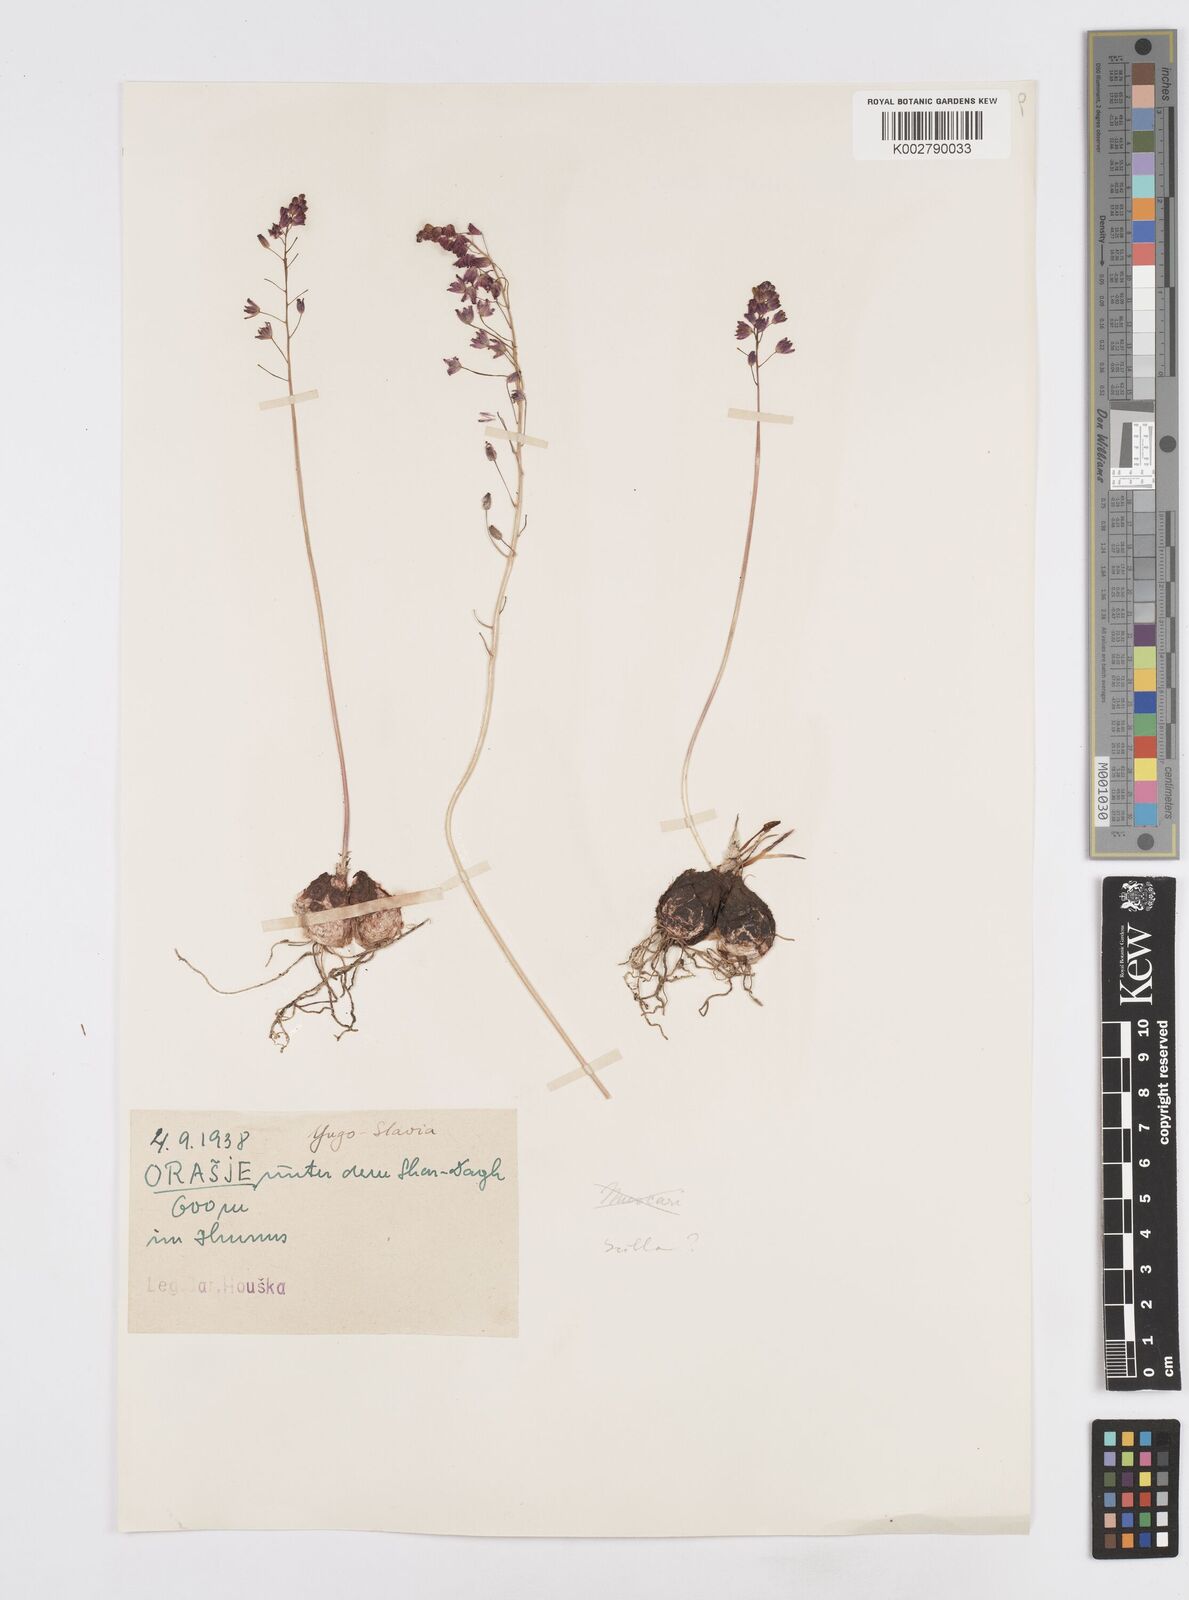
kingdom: Plantae
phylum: Tracheophyta
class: Liliopsida
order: Asparagales
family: Asparagaceae
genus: Prospero
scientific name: Prospero autumnale
